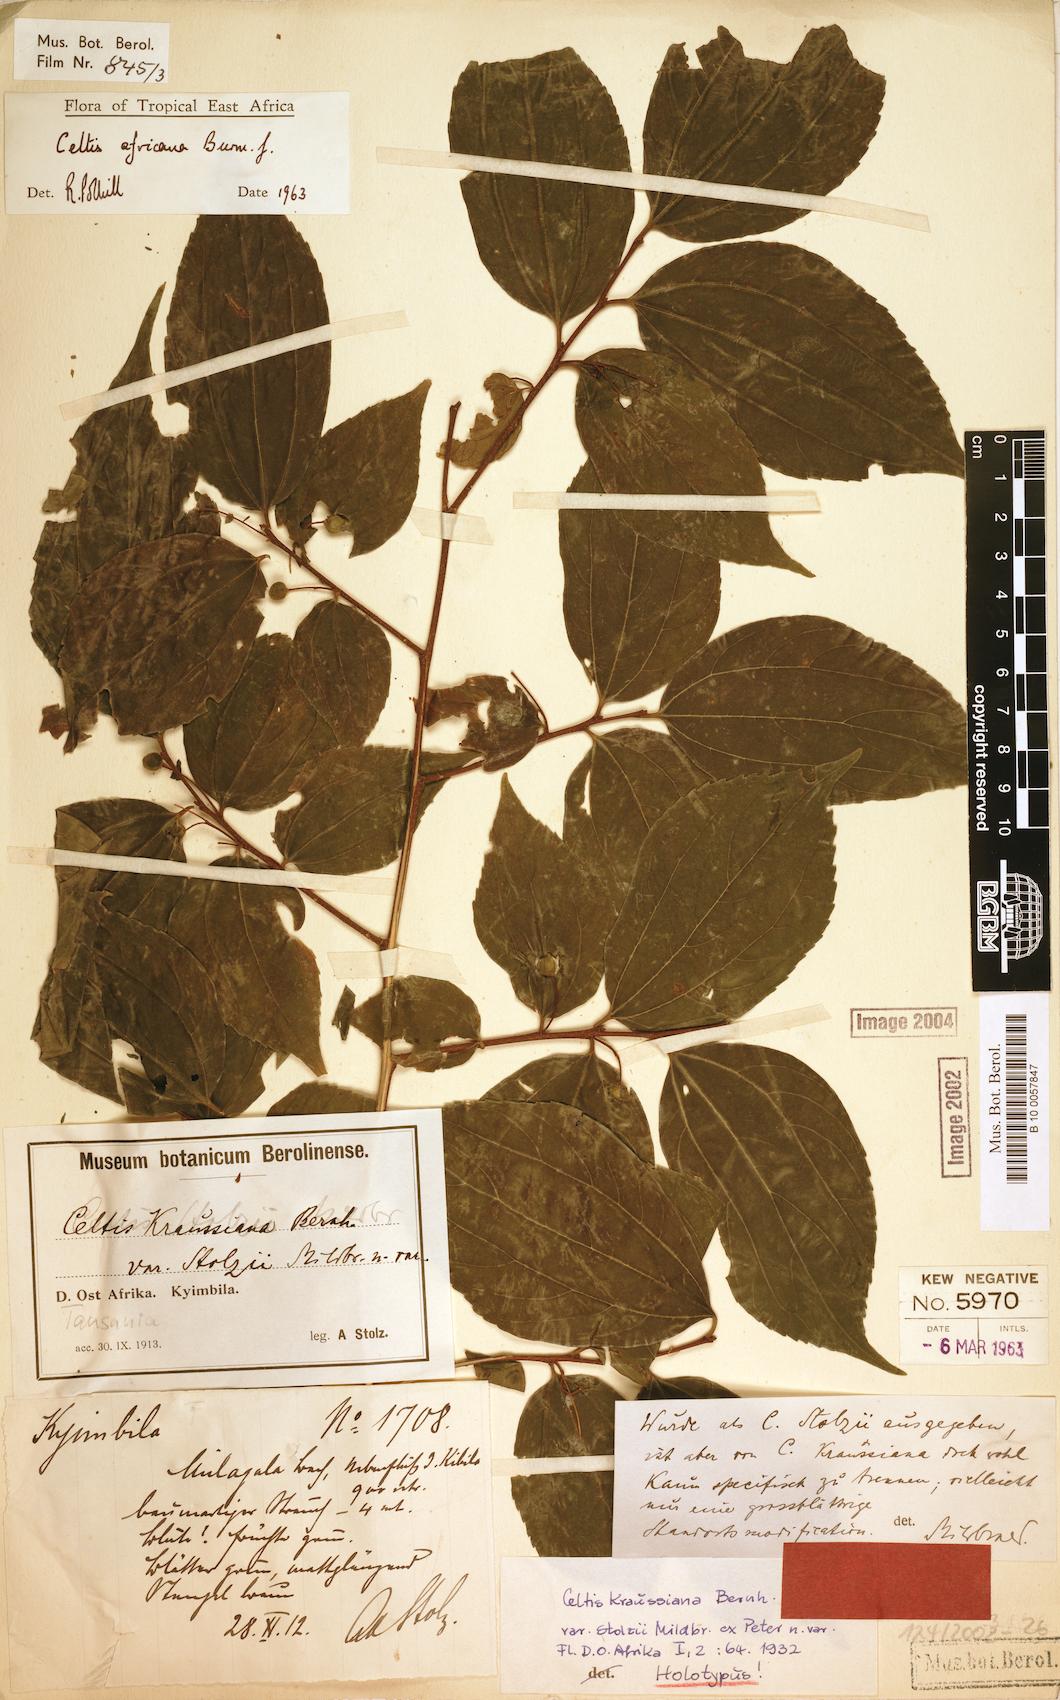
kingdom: Plantae
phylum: Tracheophyta
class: Magnoliopsida
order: Rosales
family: Cannabaceae
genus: Celtis
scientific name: Celtis africana
